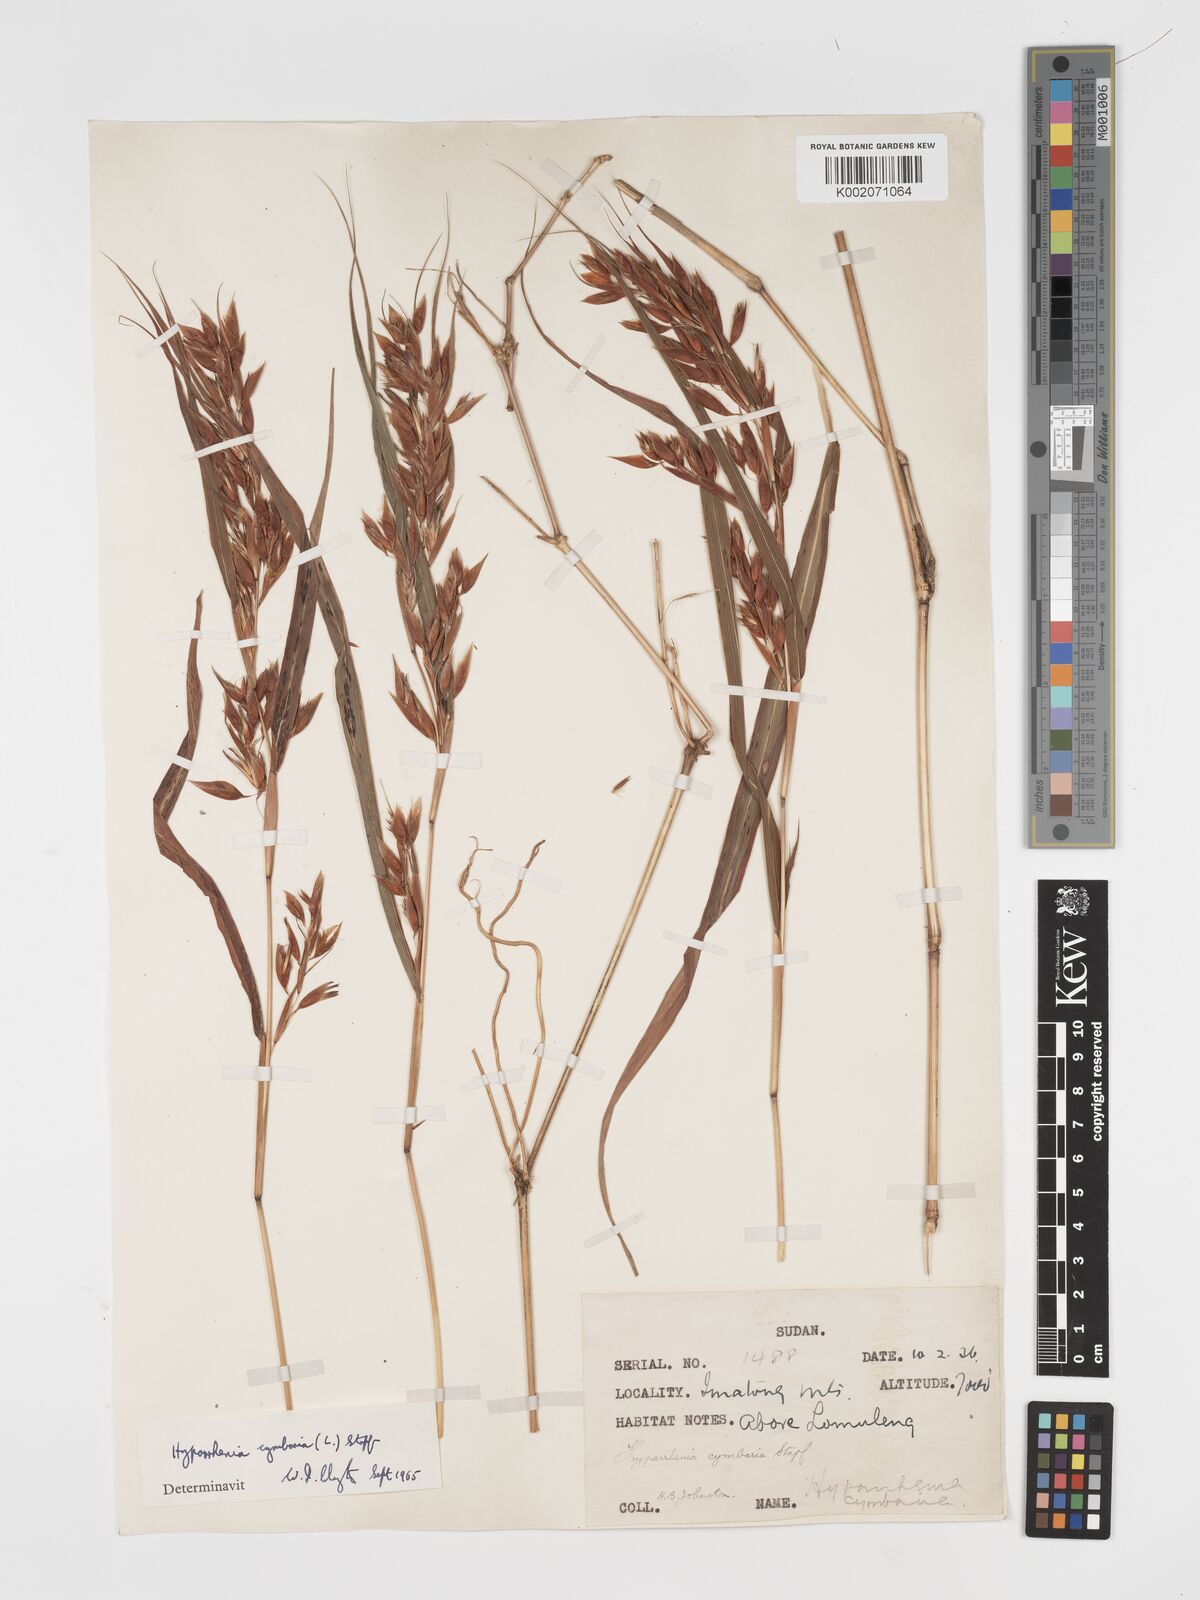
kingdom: Plantae
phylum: Tracheophyta
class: Liliopsida
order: Poales
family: Poaceae
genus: Hyparrhenia
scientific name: Hyparrhenia cymbaria
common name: Boat thatching grass
